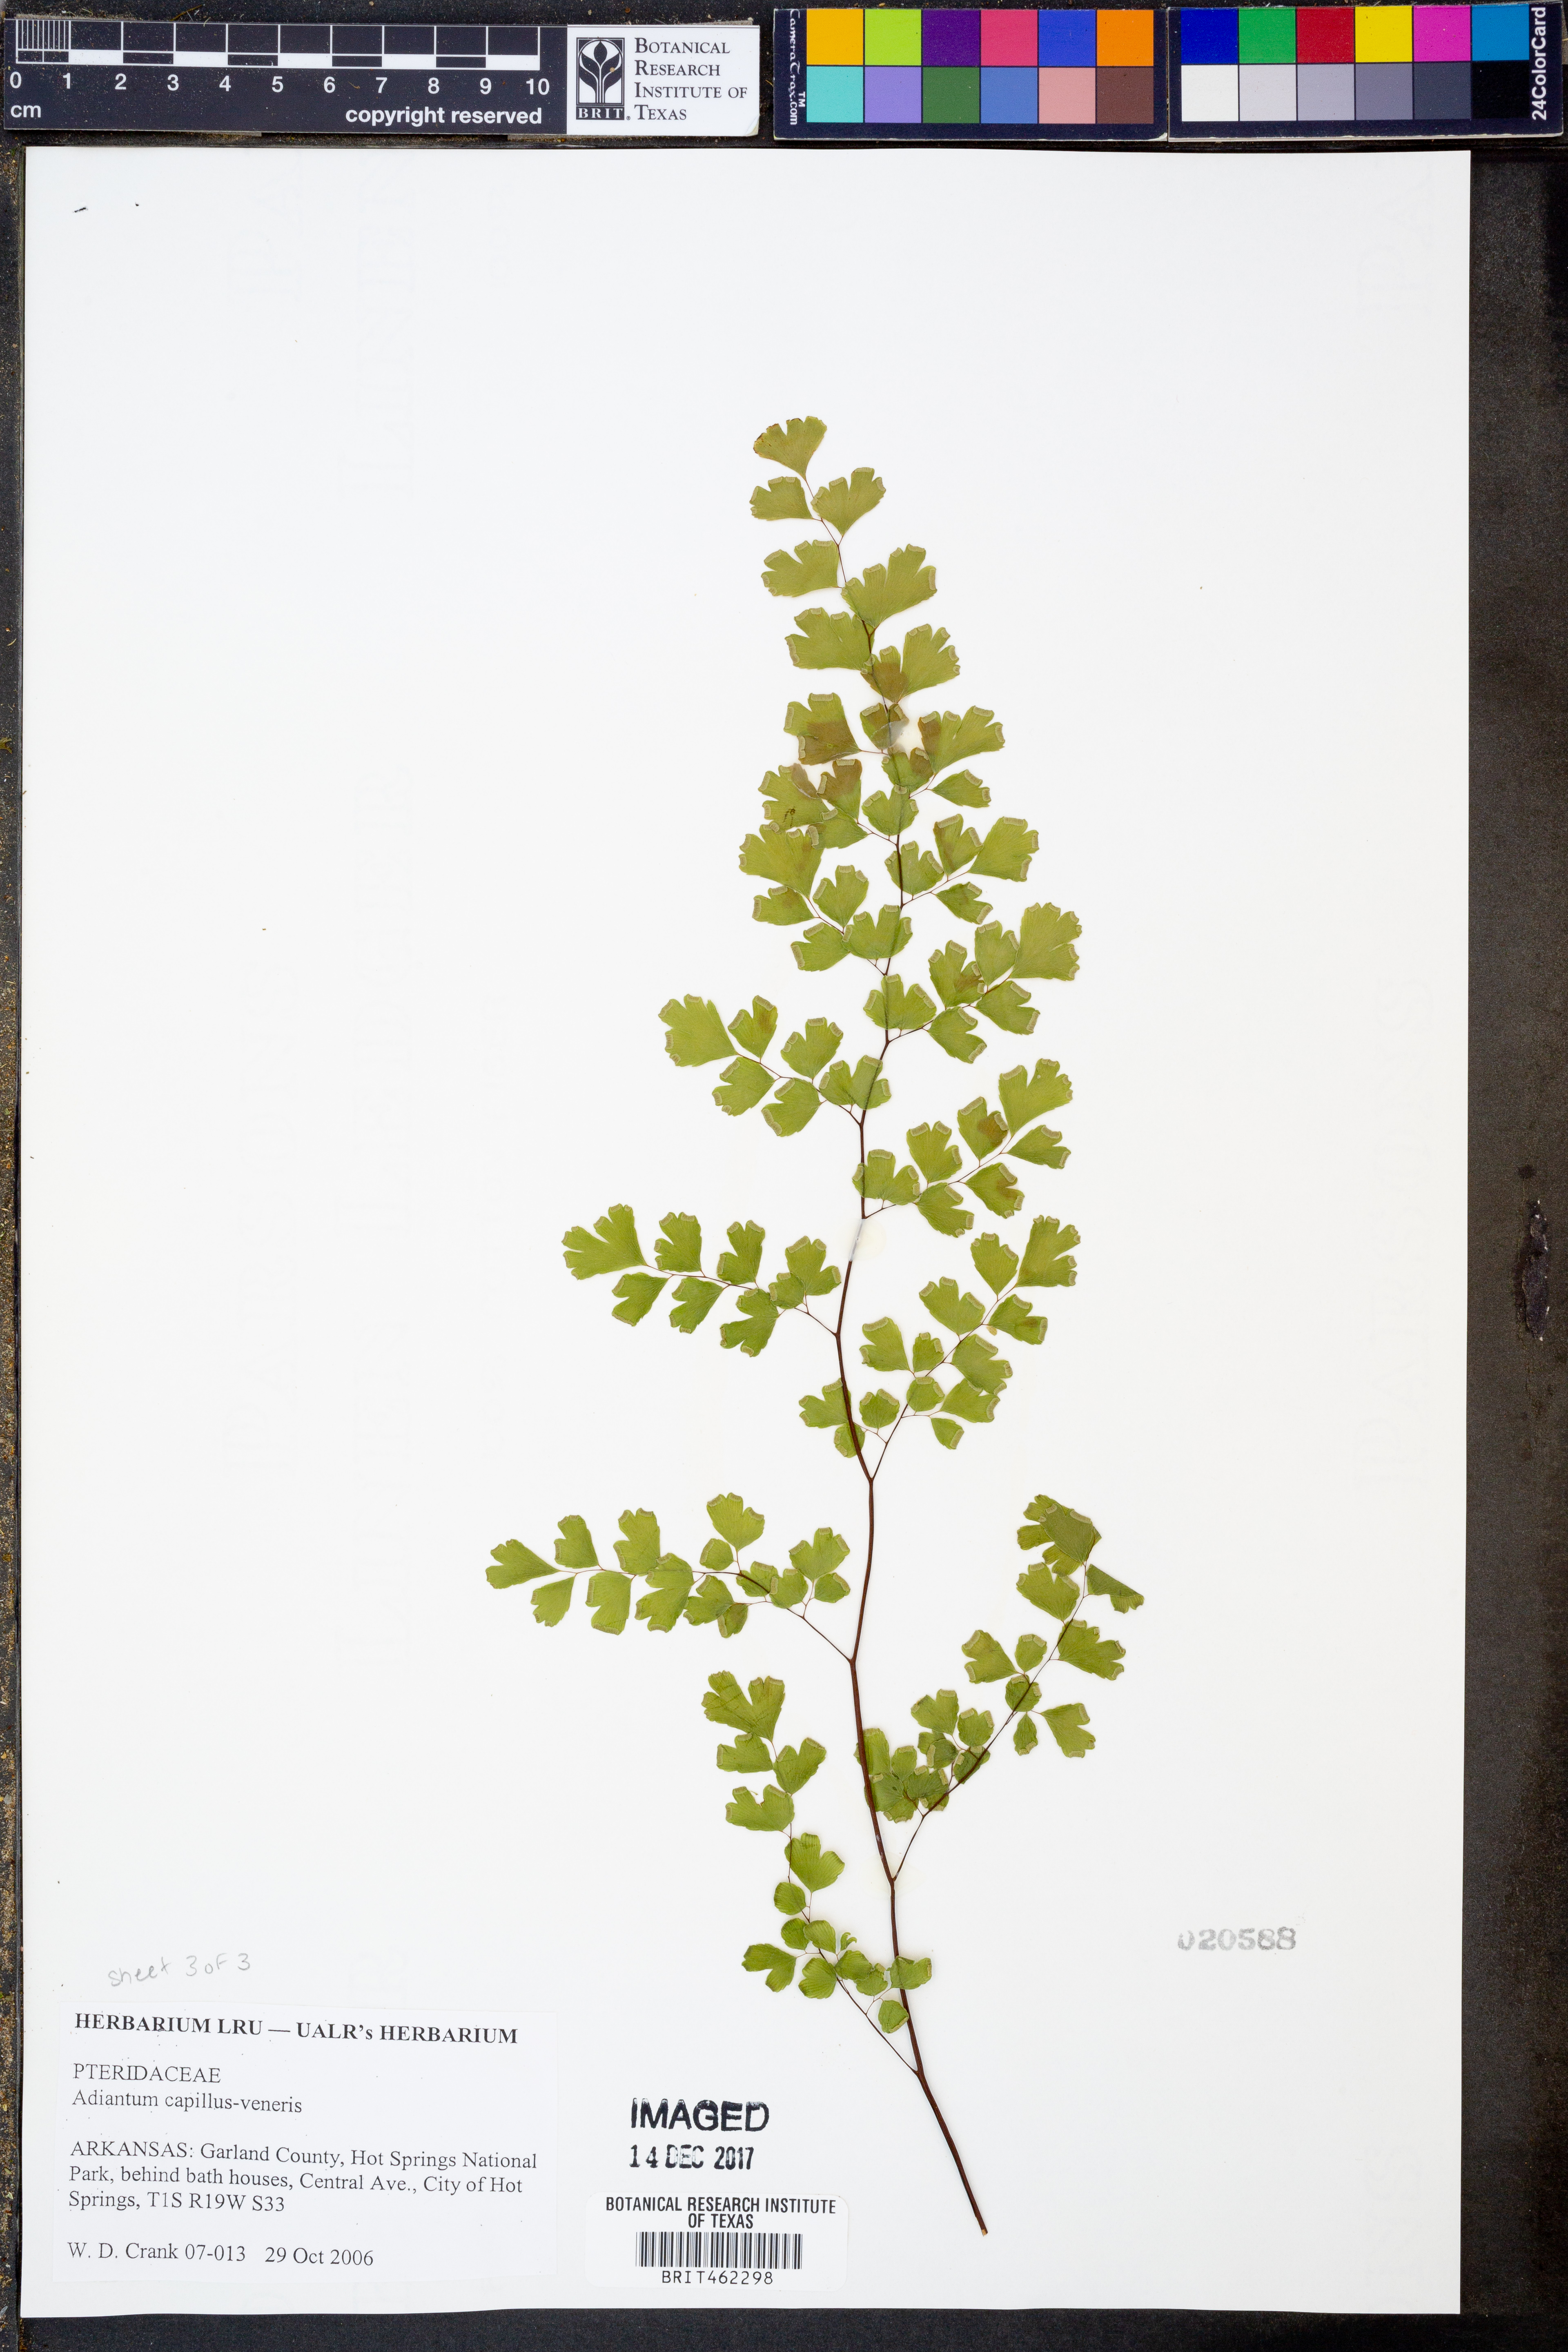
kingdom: Plantae
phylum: Tracheophyta
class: Polypodiopsida
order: Polypodiales
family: Pteridaceae
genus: Adiantum
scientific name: Adiantum capillus-veneris
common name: Maidenhair fern
